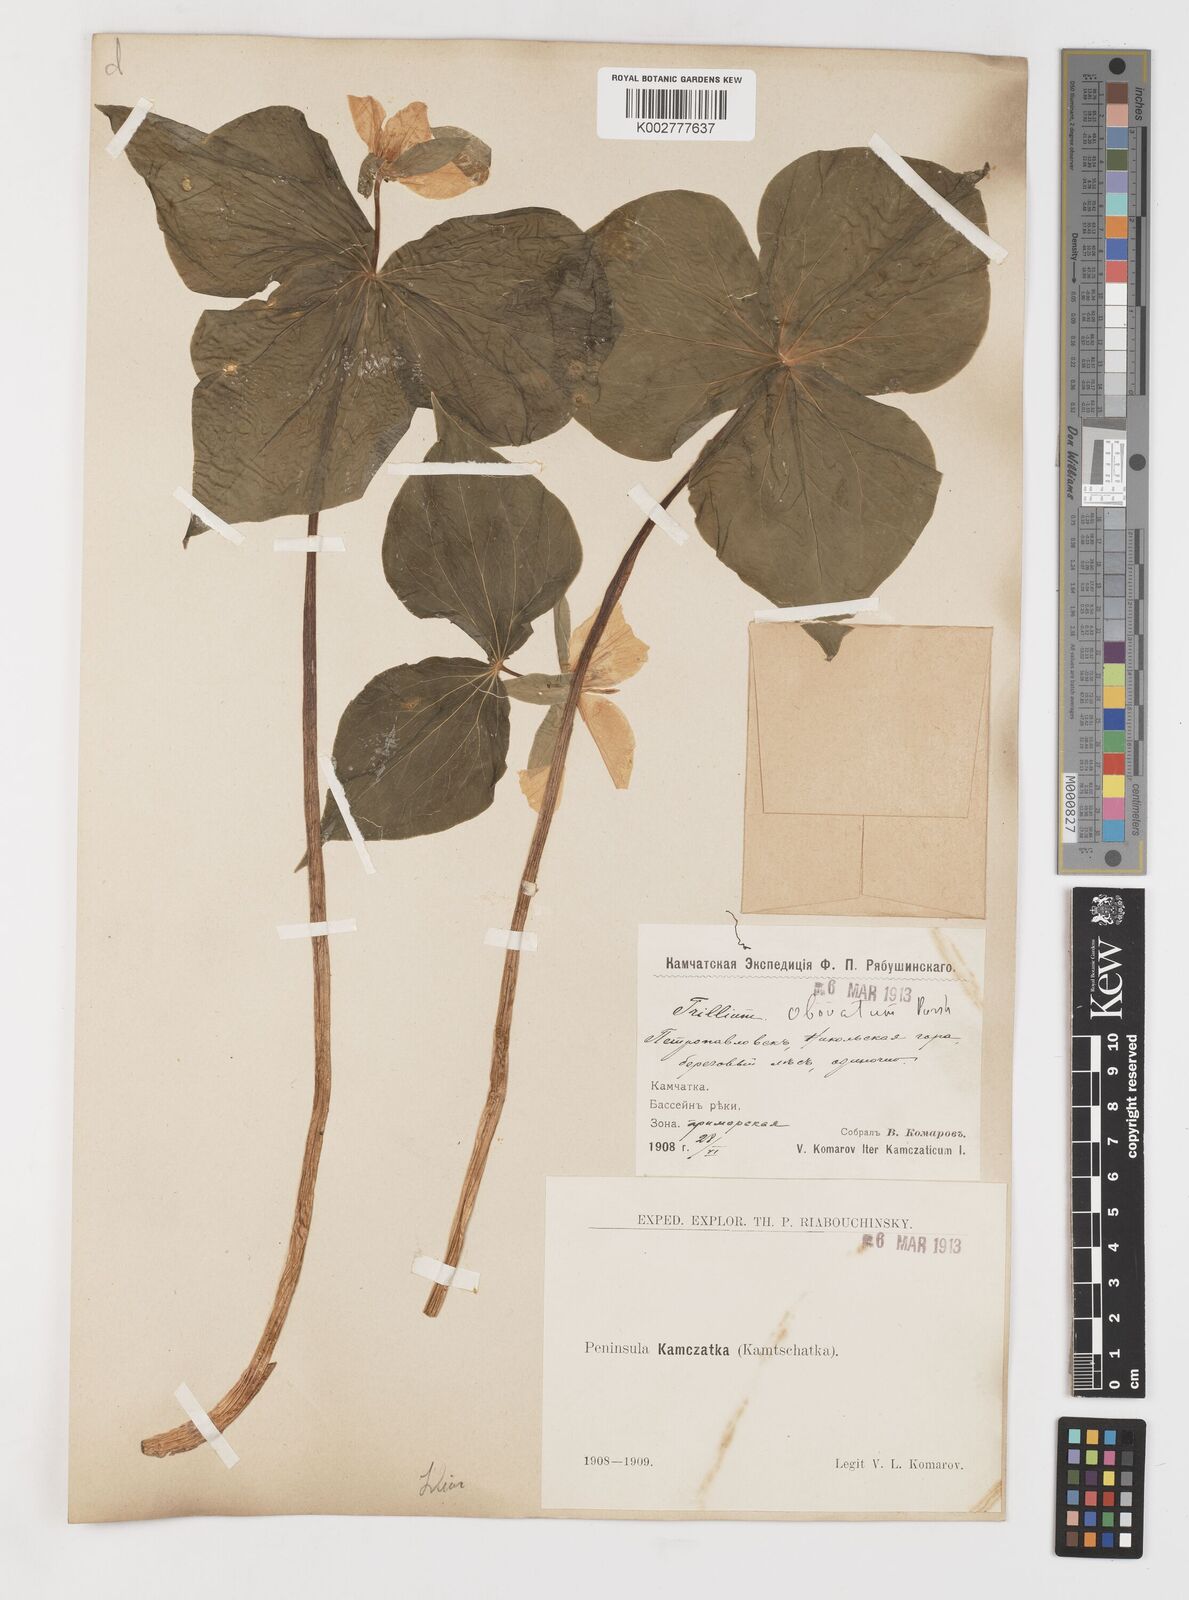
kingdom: Plantae
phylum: Tracheophyta
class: Liliopsida
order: Liliales
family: Melanthiaceae
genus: Trillium
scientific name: Trillium erectum
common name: Purple trillium
